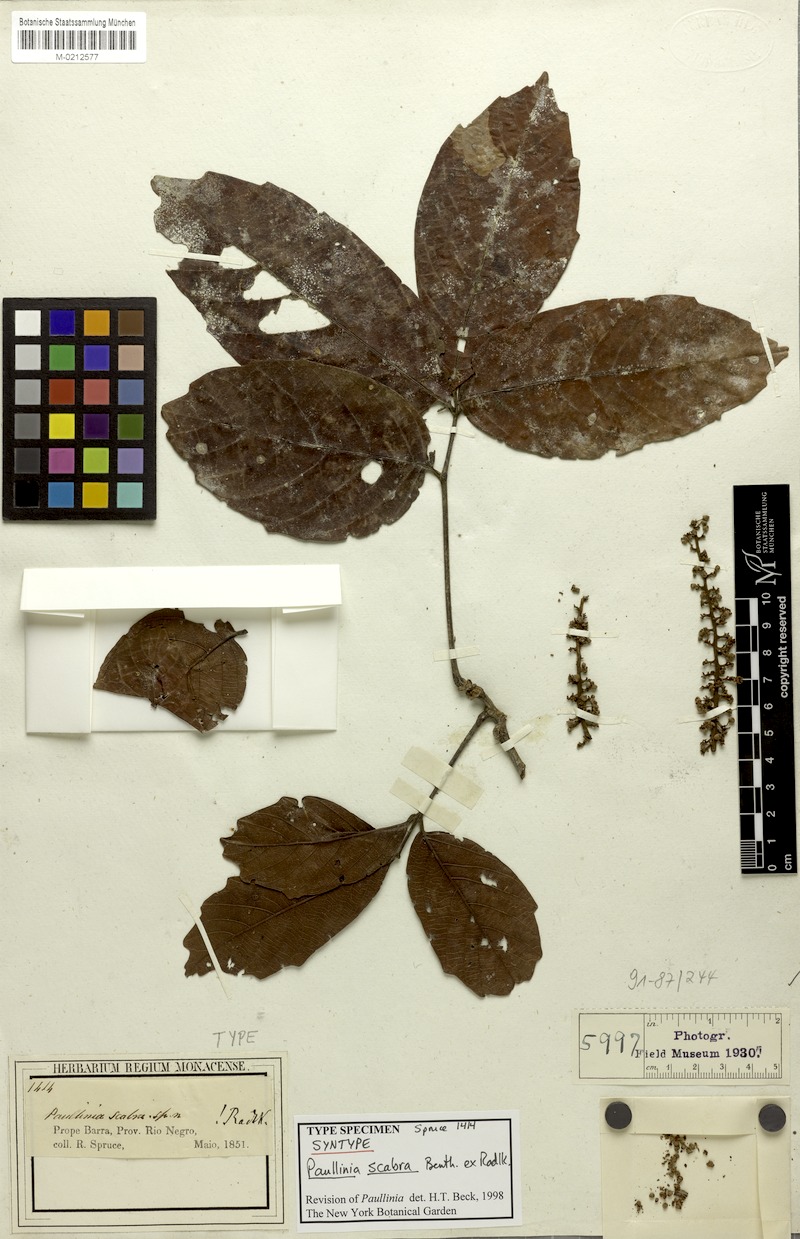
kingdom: Plantae
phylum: Tracheophyta
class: Magnoliopsida
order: Sapindales
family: Sapindaceae
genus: Paullinia
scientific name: Paullinia scabra
